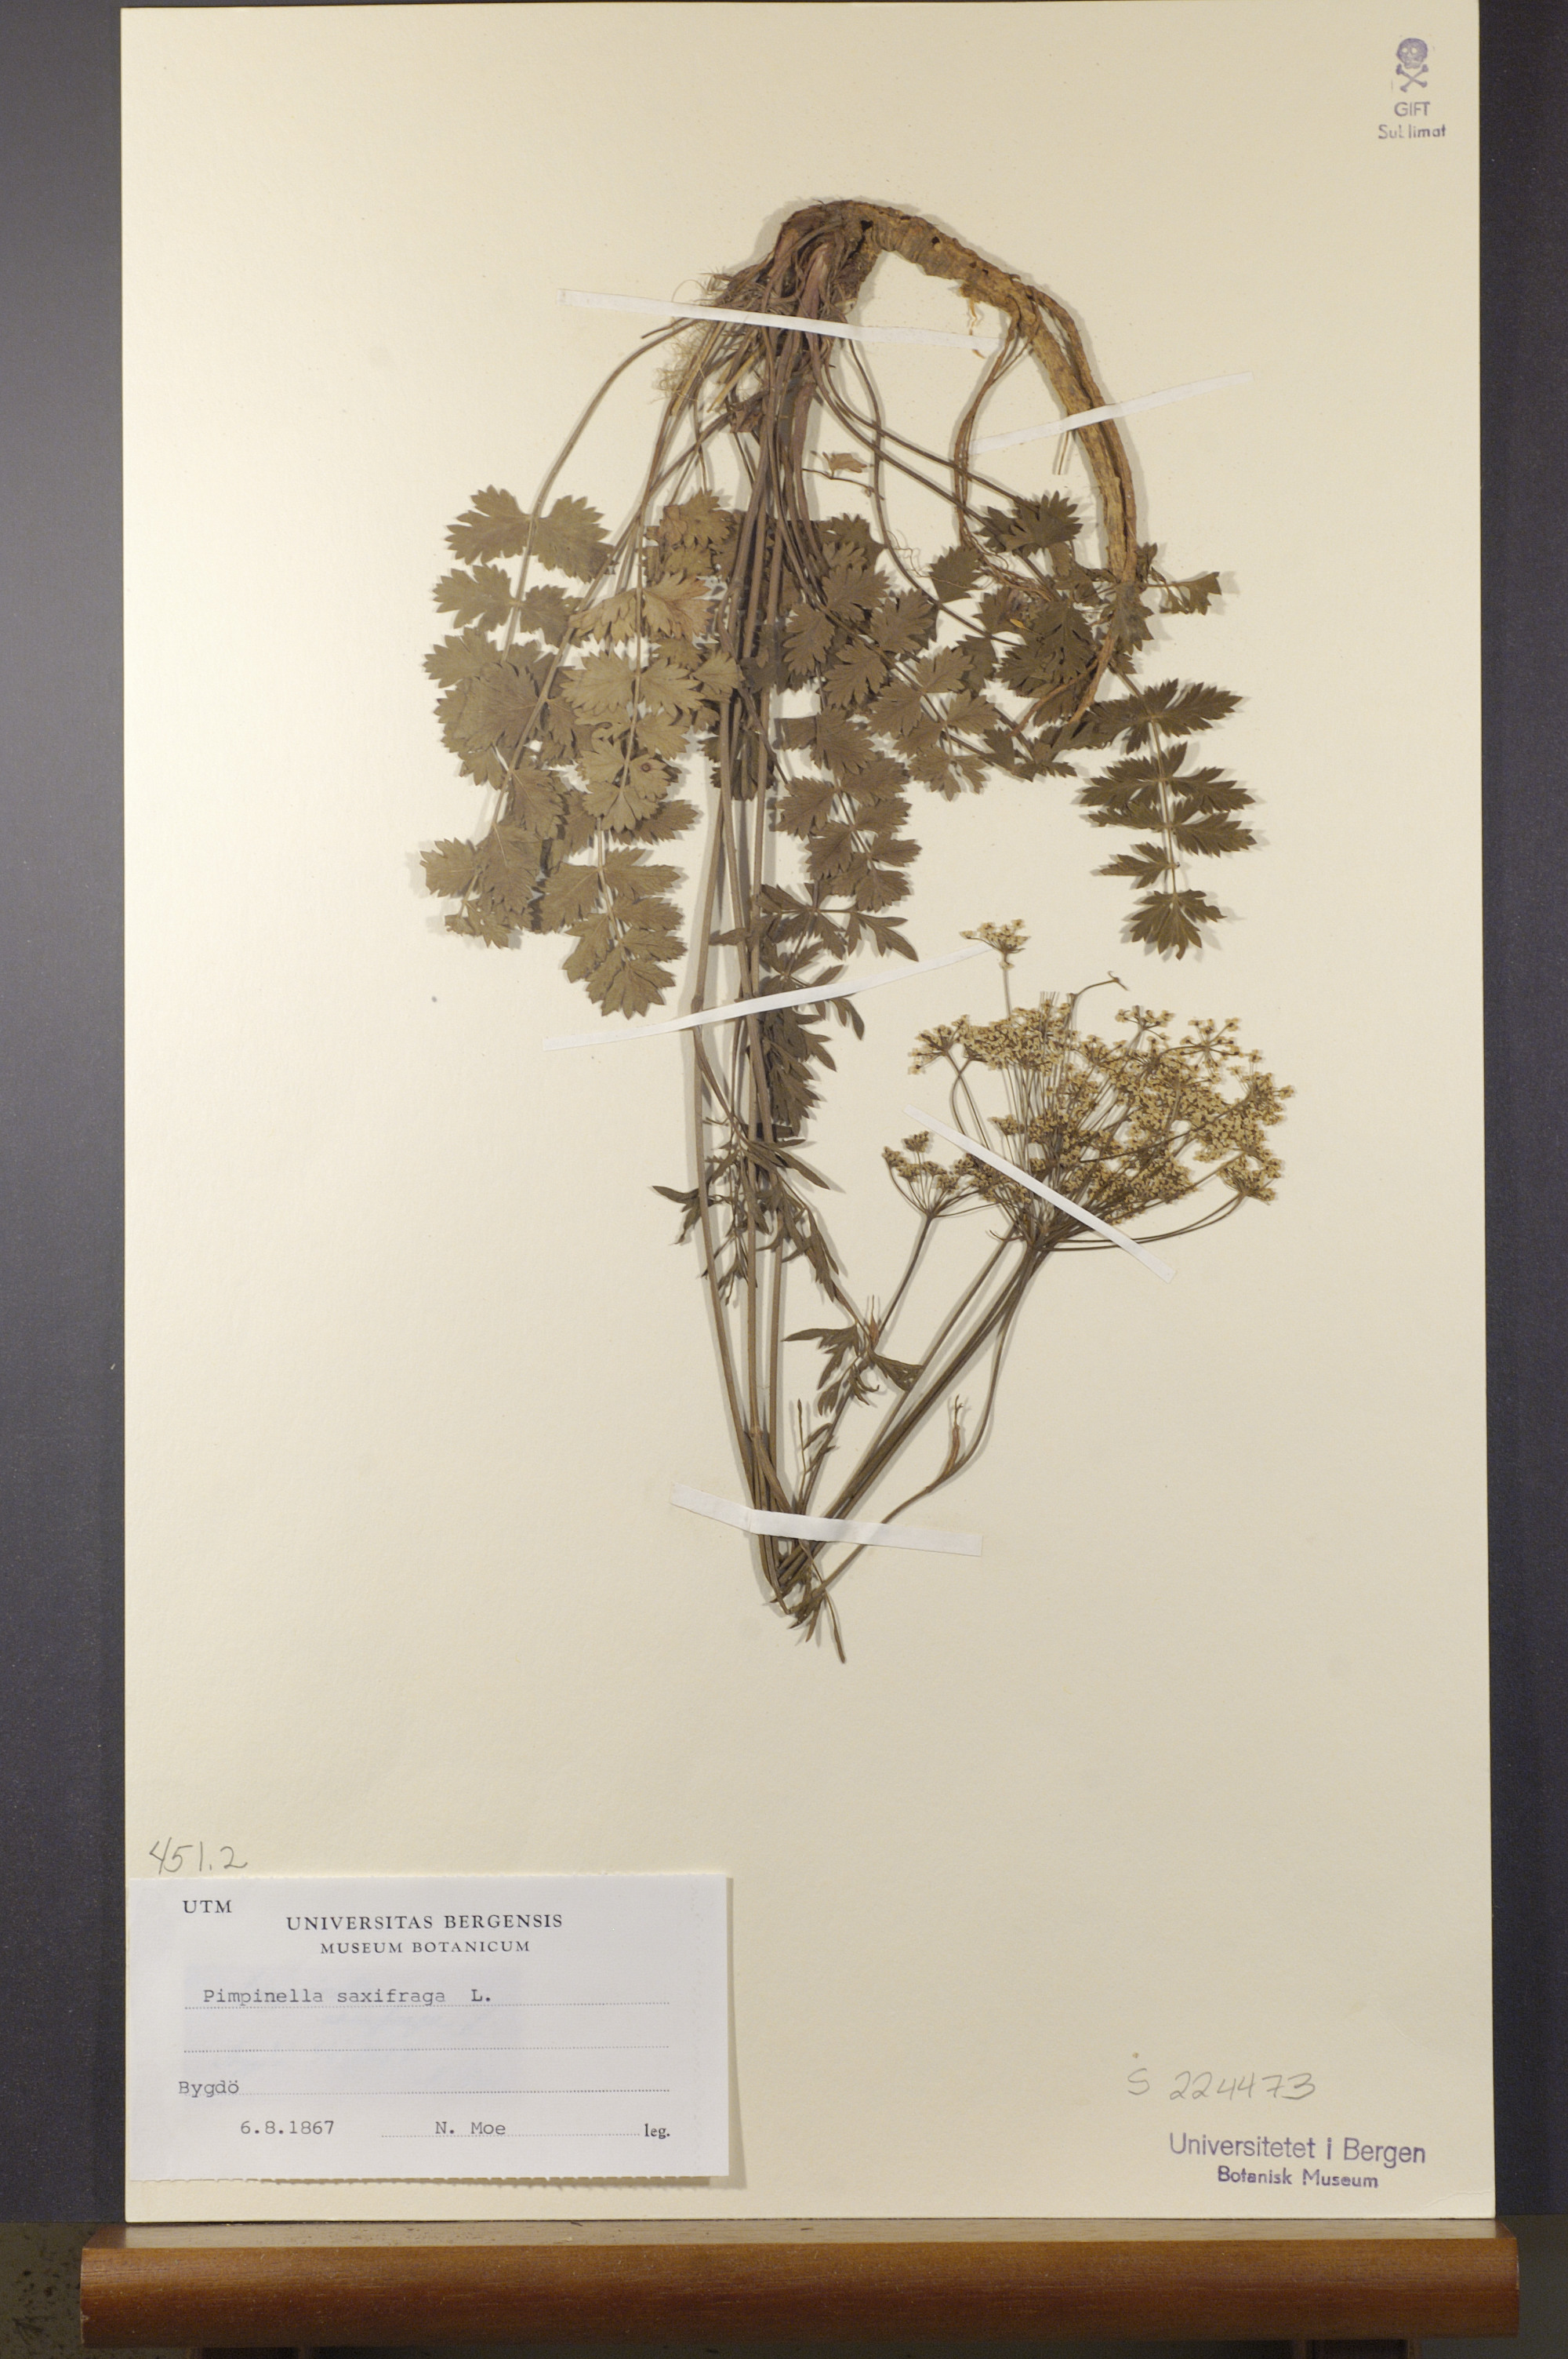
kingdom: Plantae
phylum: Tracheophyta
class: Magnoliopsida
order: Apiales
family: Apiaceae
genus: Pimpinella
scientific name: Pimpinella saxifraga
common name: Burnet-saxifrage
